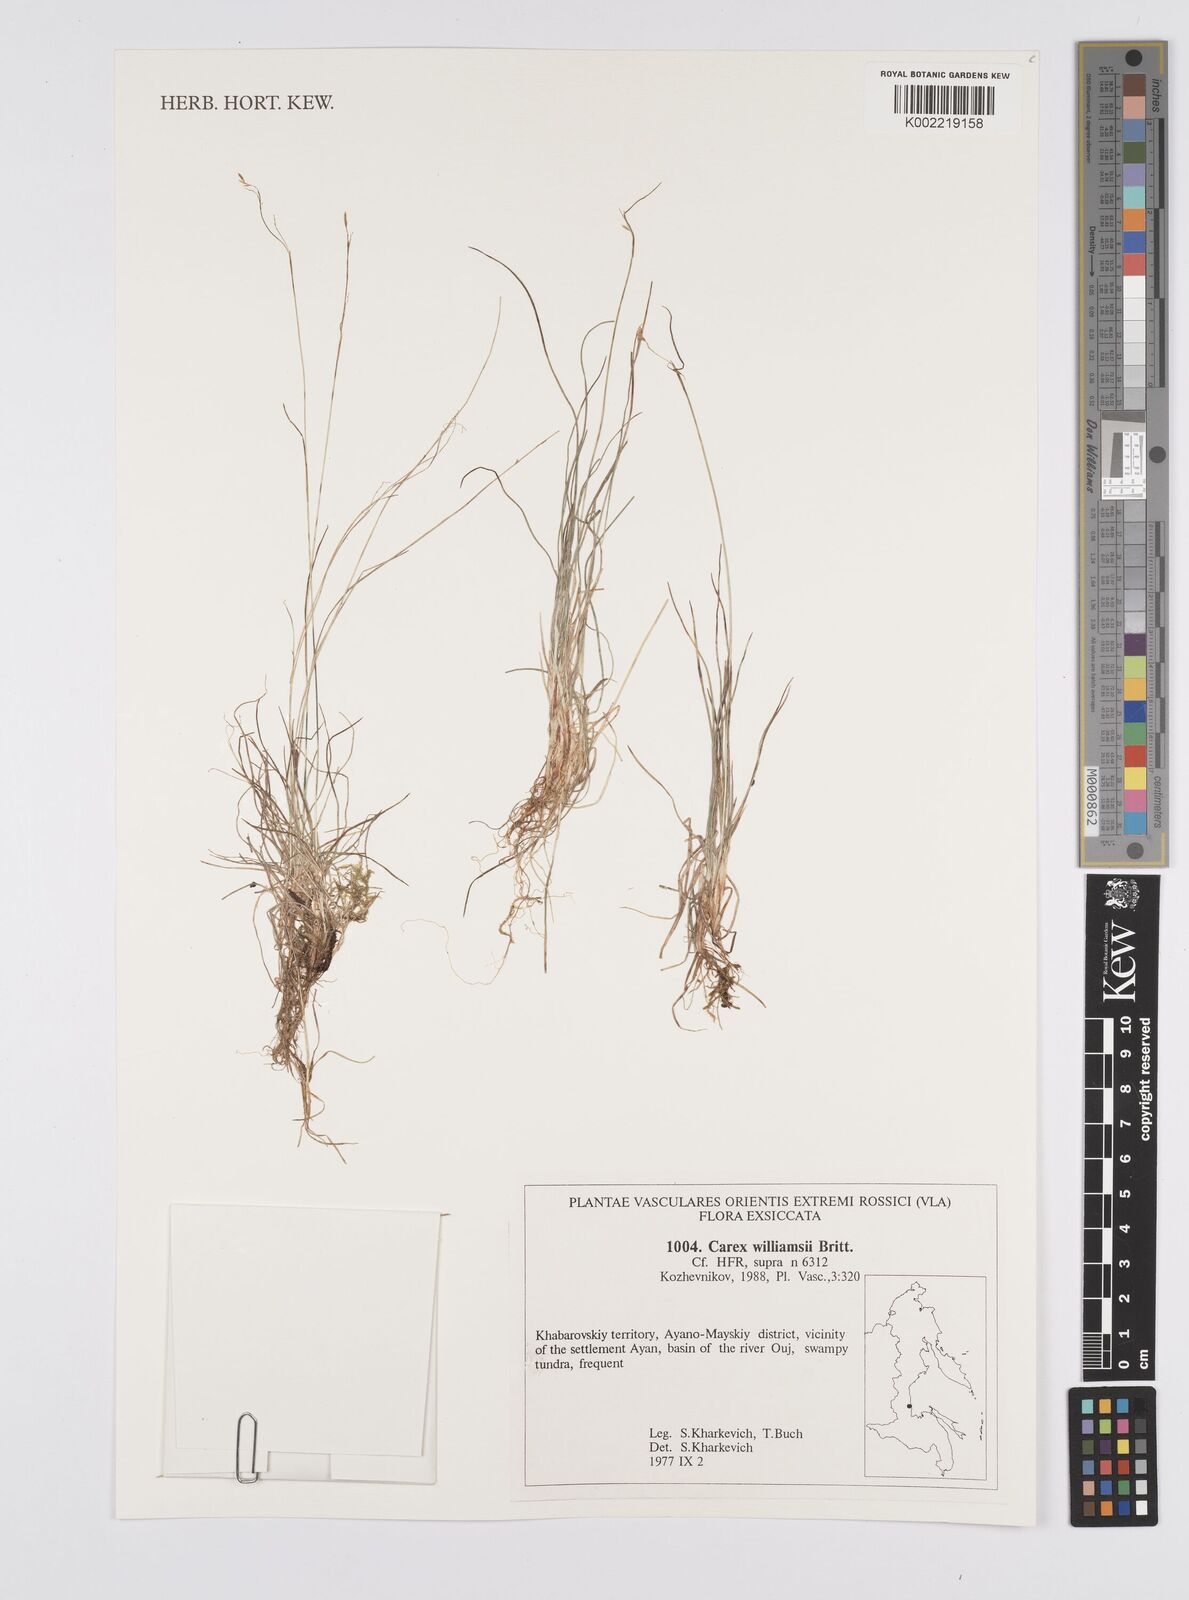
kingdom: Plantae
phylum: Tracheophyta
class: Liliopsida
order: Poales
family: Cyperaceae
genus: Carex
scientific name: Carex williamsii
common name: Williams' sedge
